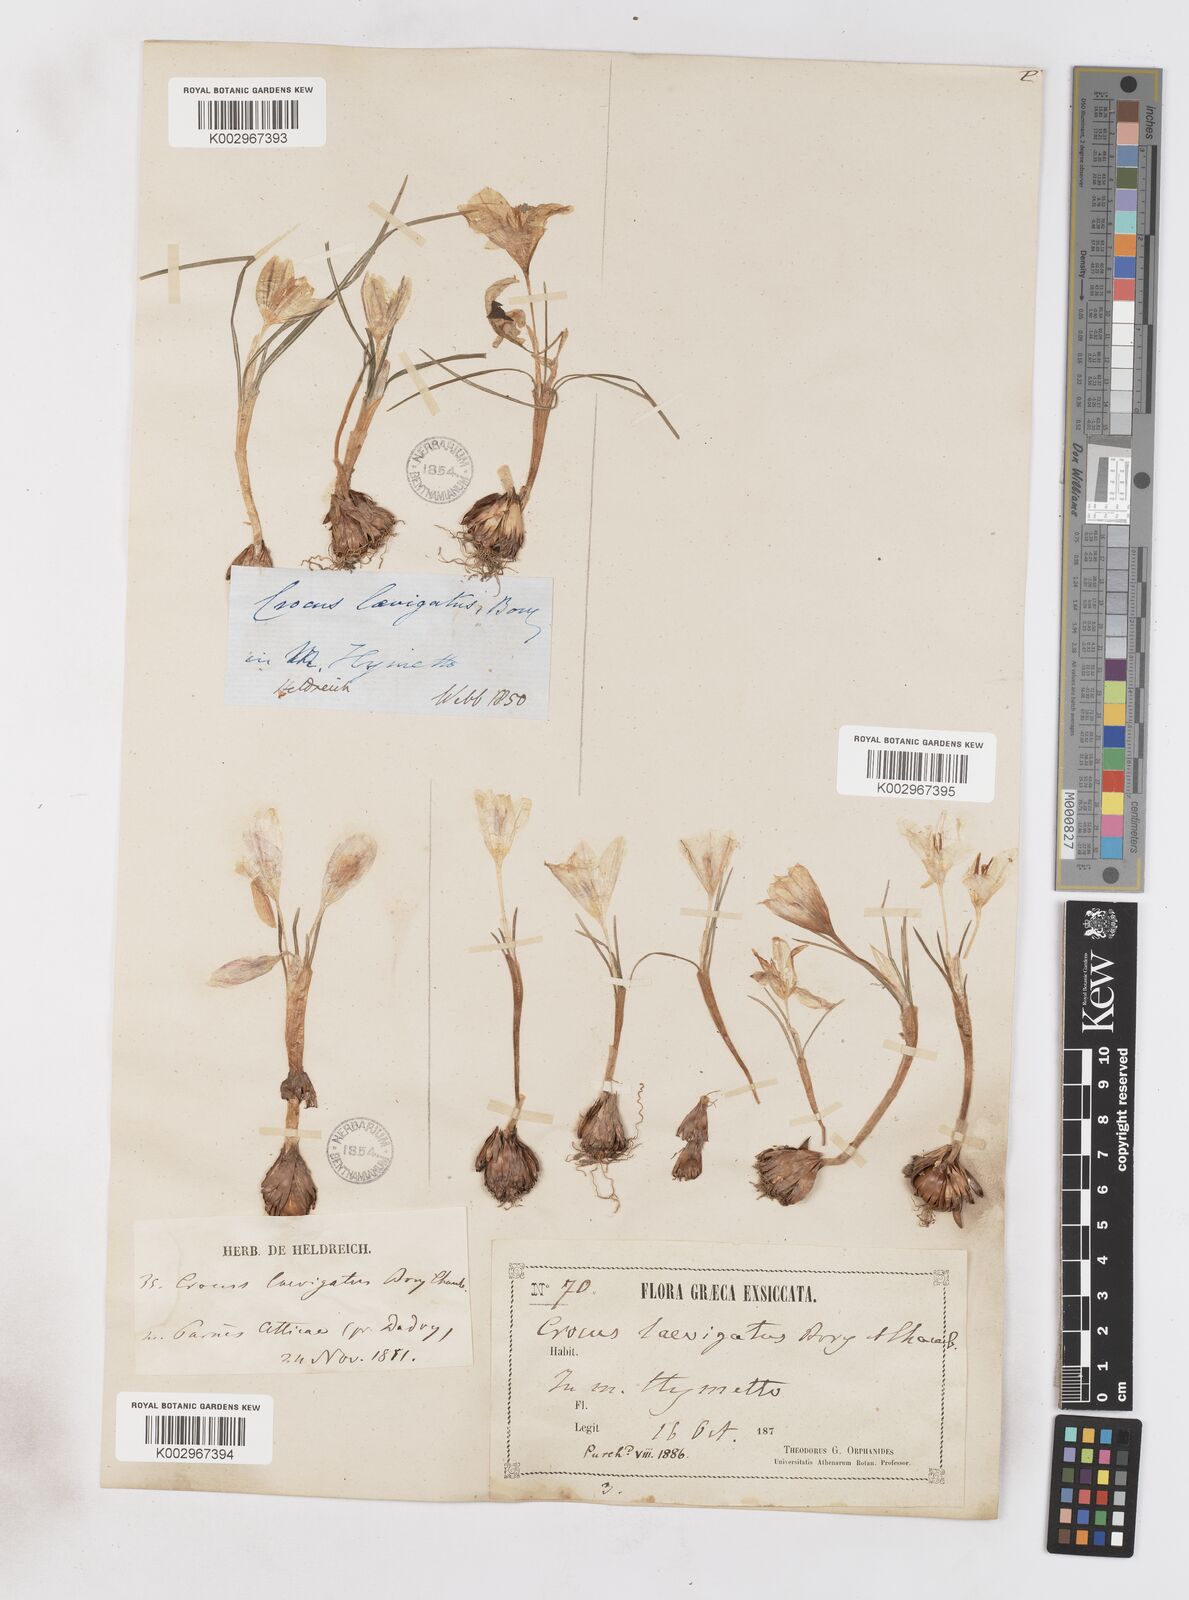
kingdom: Plantae
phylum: Tracheophyta
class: Liliopsida
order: Asparagales
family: Iridaceae
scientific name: Iridaceae
